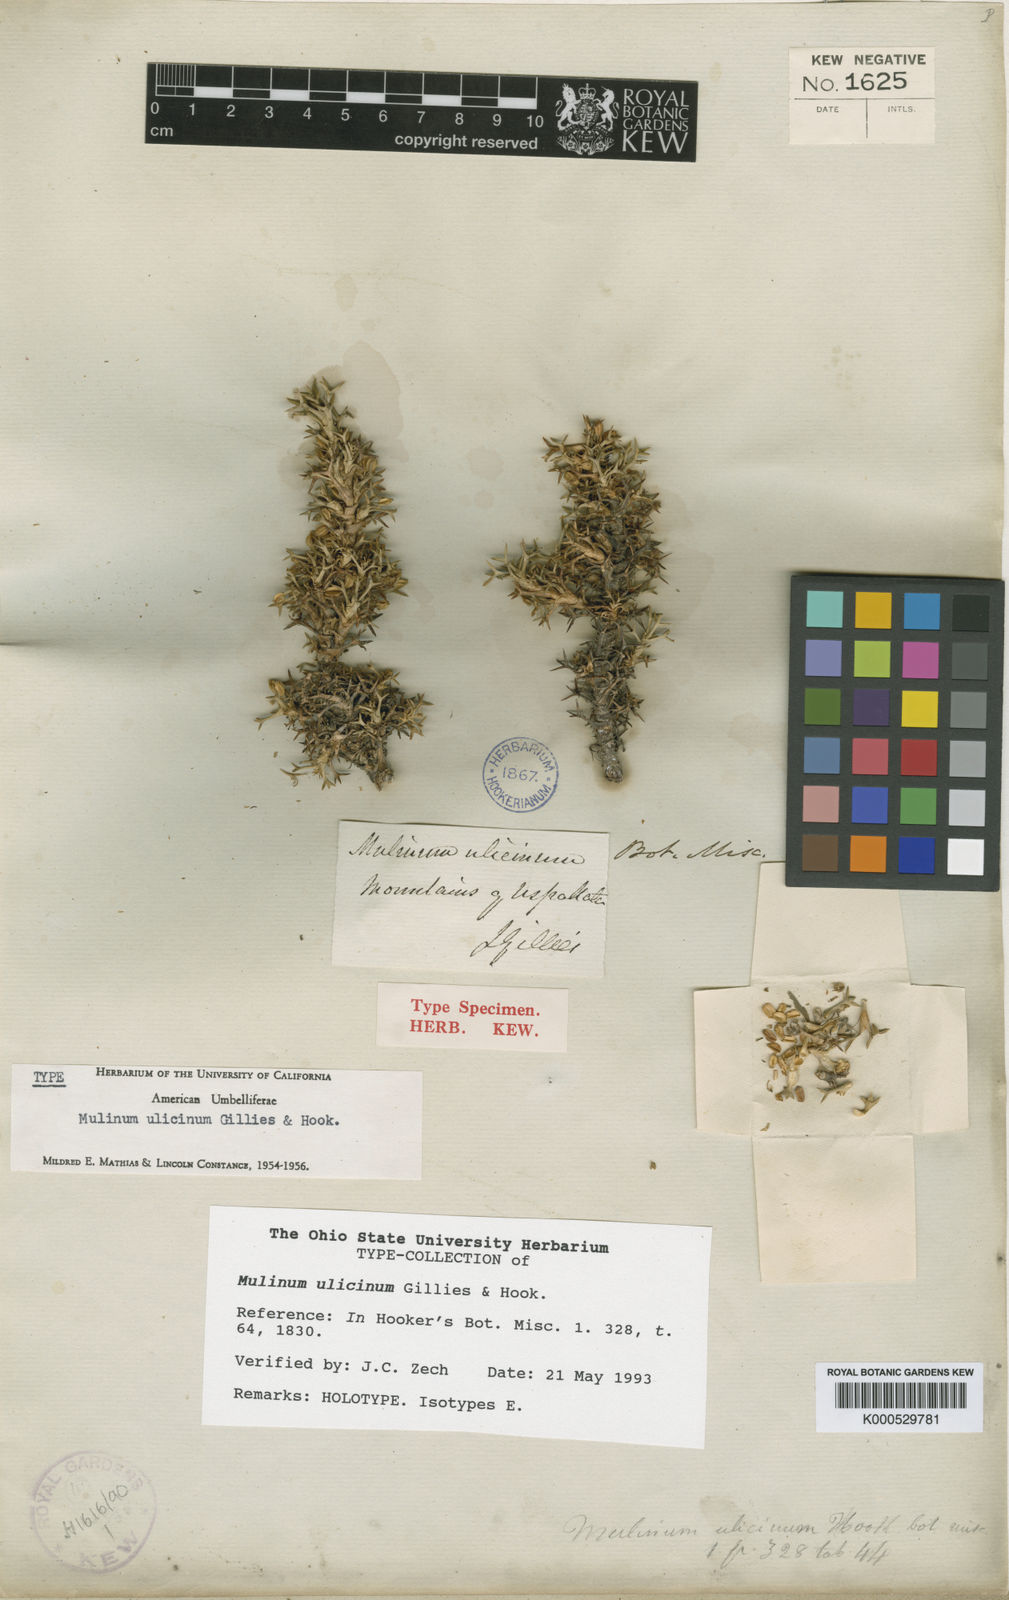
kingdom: Plantae
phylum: Tracheophyta
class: Magnoliopsida
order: Apiales
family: Apiaceae
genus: Azorella
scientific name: Azorella ulicina
